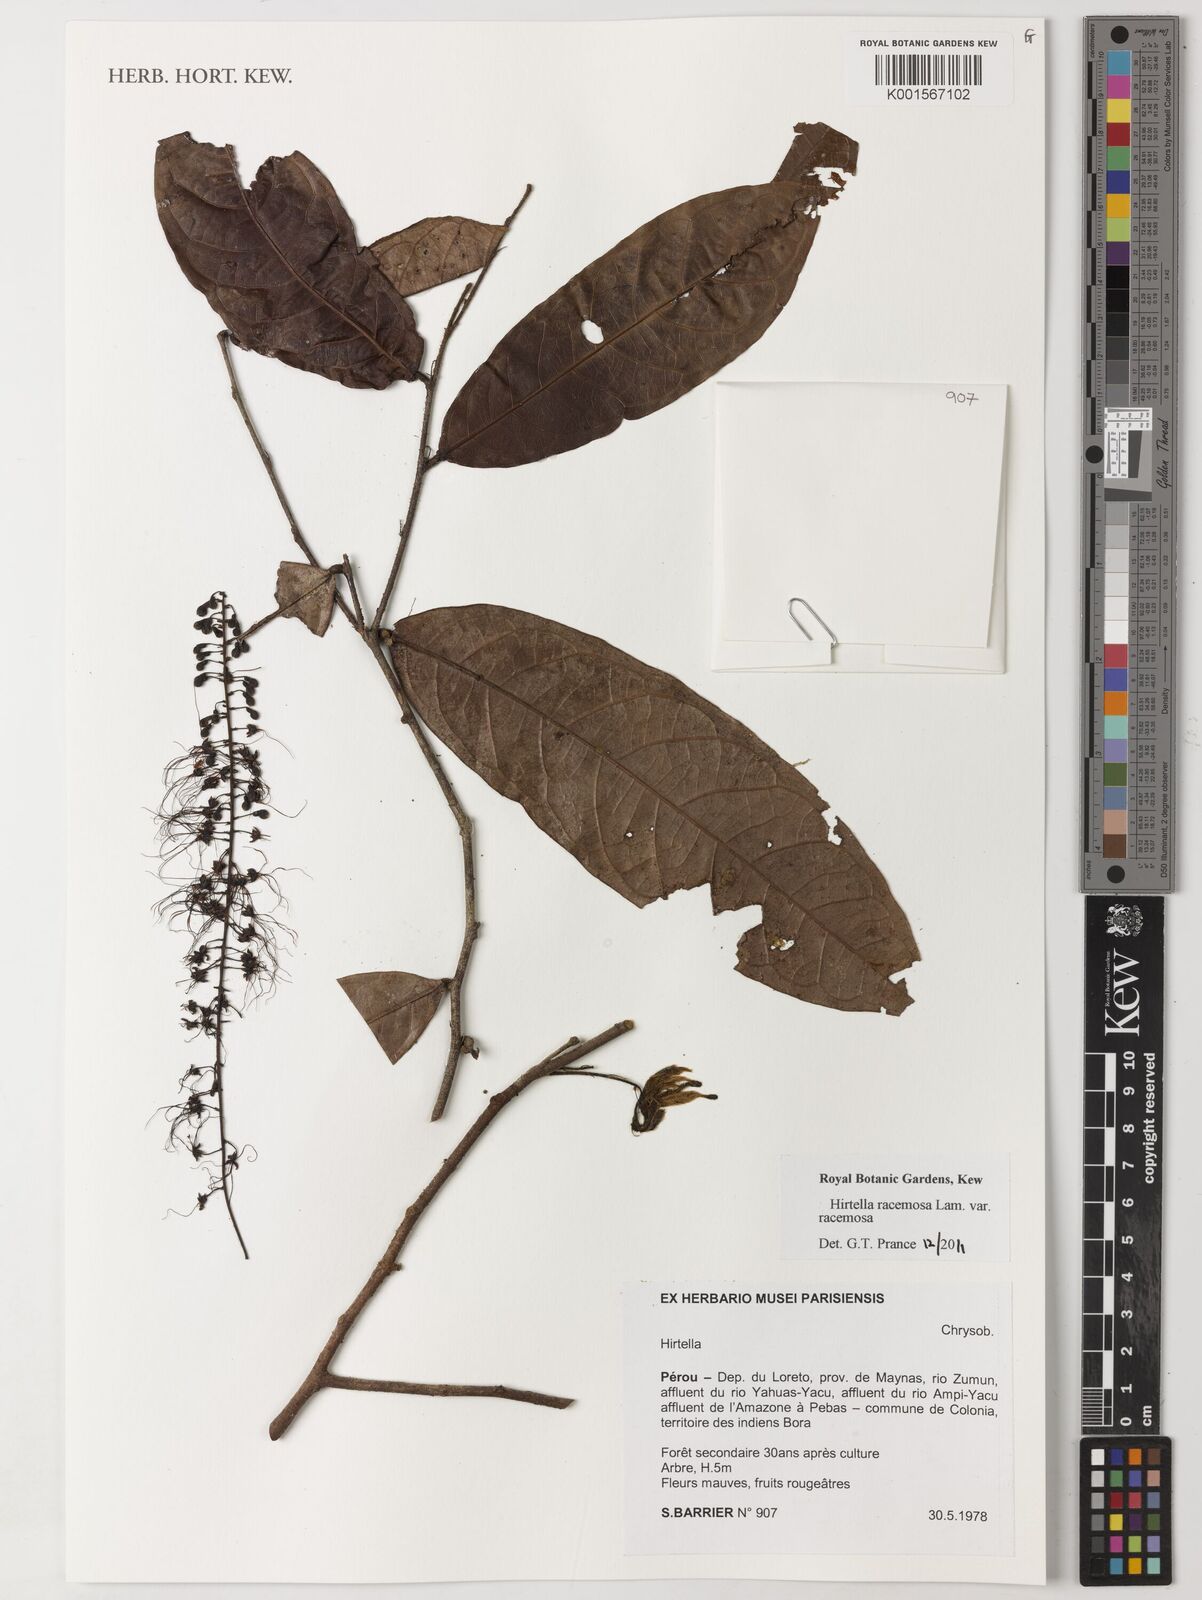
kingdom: Plantae
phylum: Tracheophyta
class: Magnoliopsida
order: Malpighiales
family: Chrysobalanaceae
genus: Hirtella
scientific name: Hirtella racemosa
